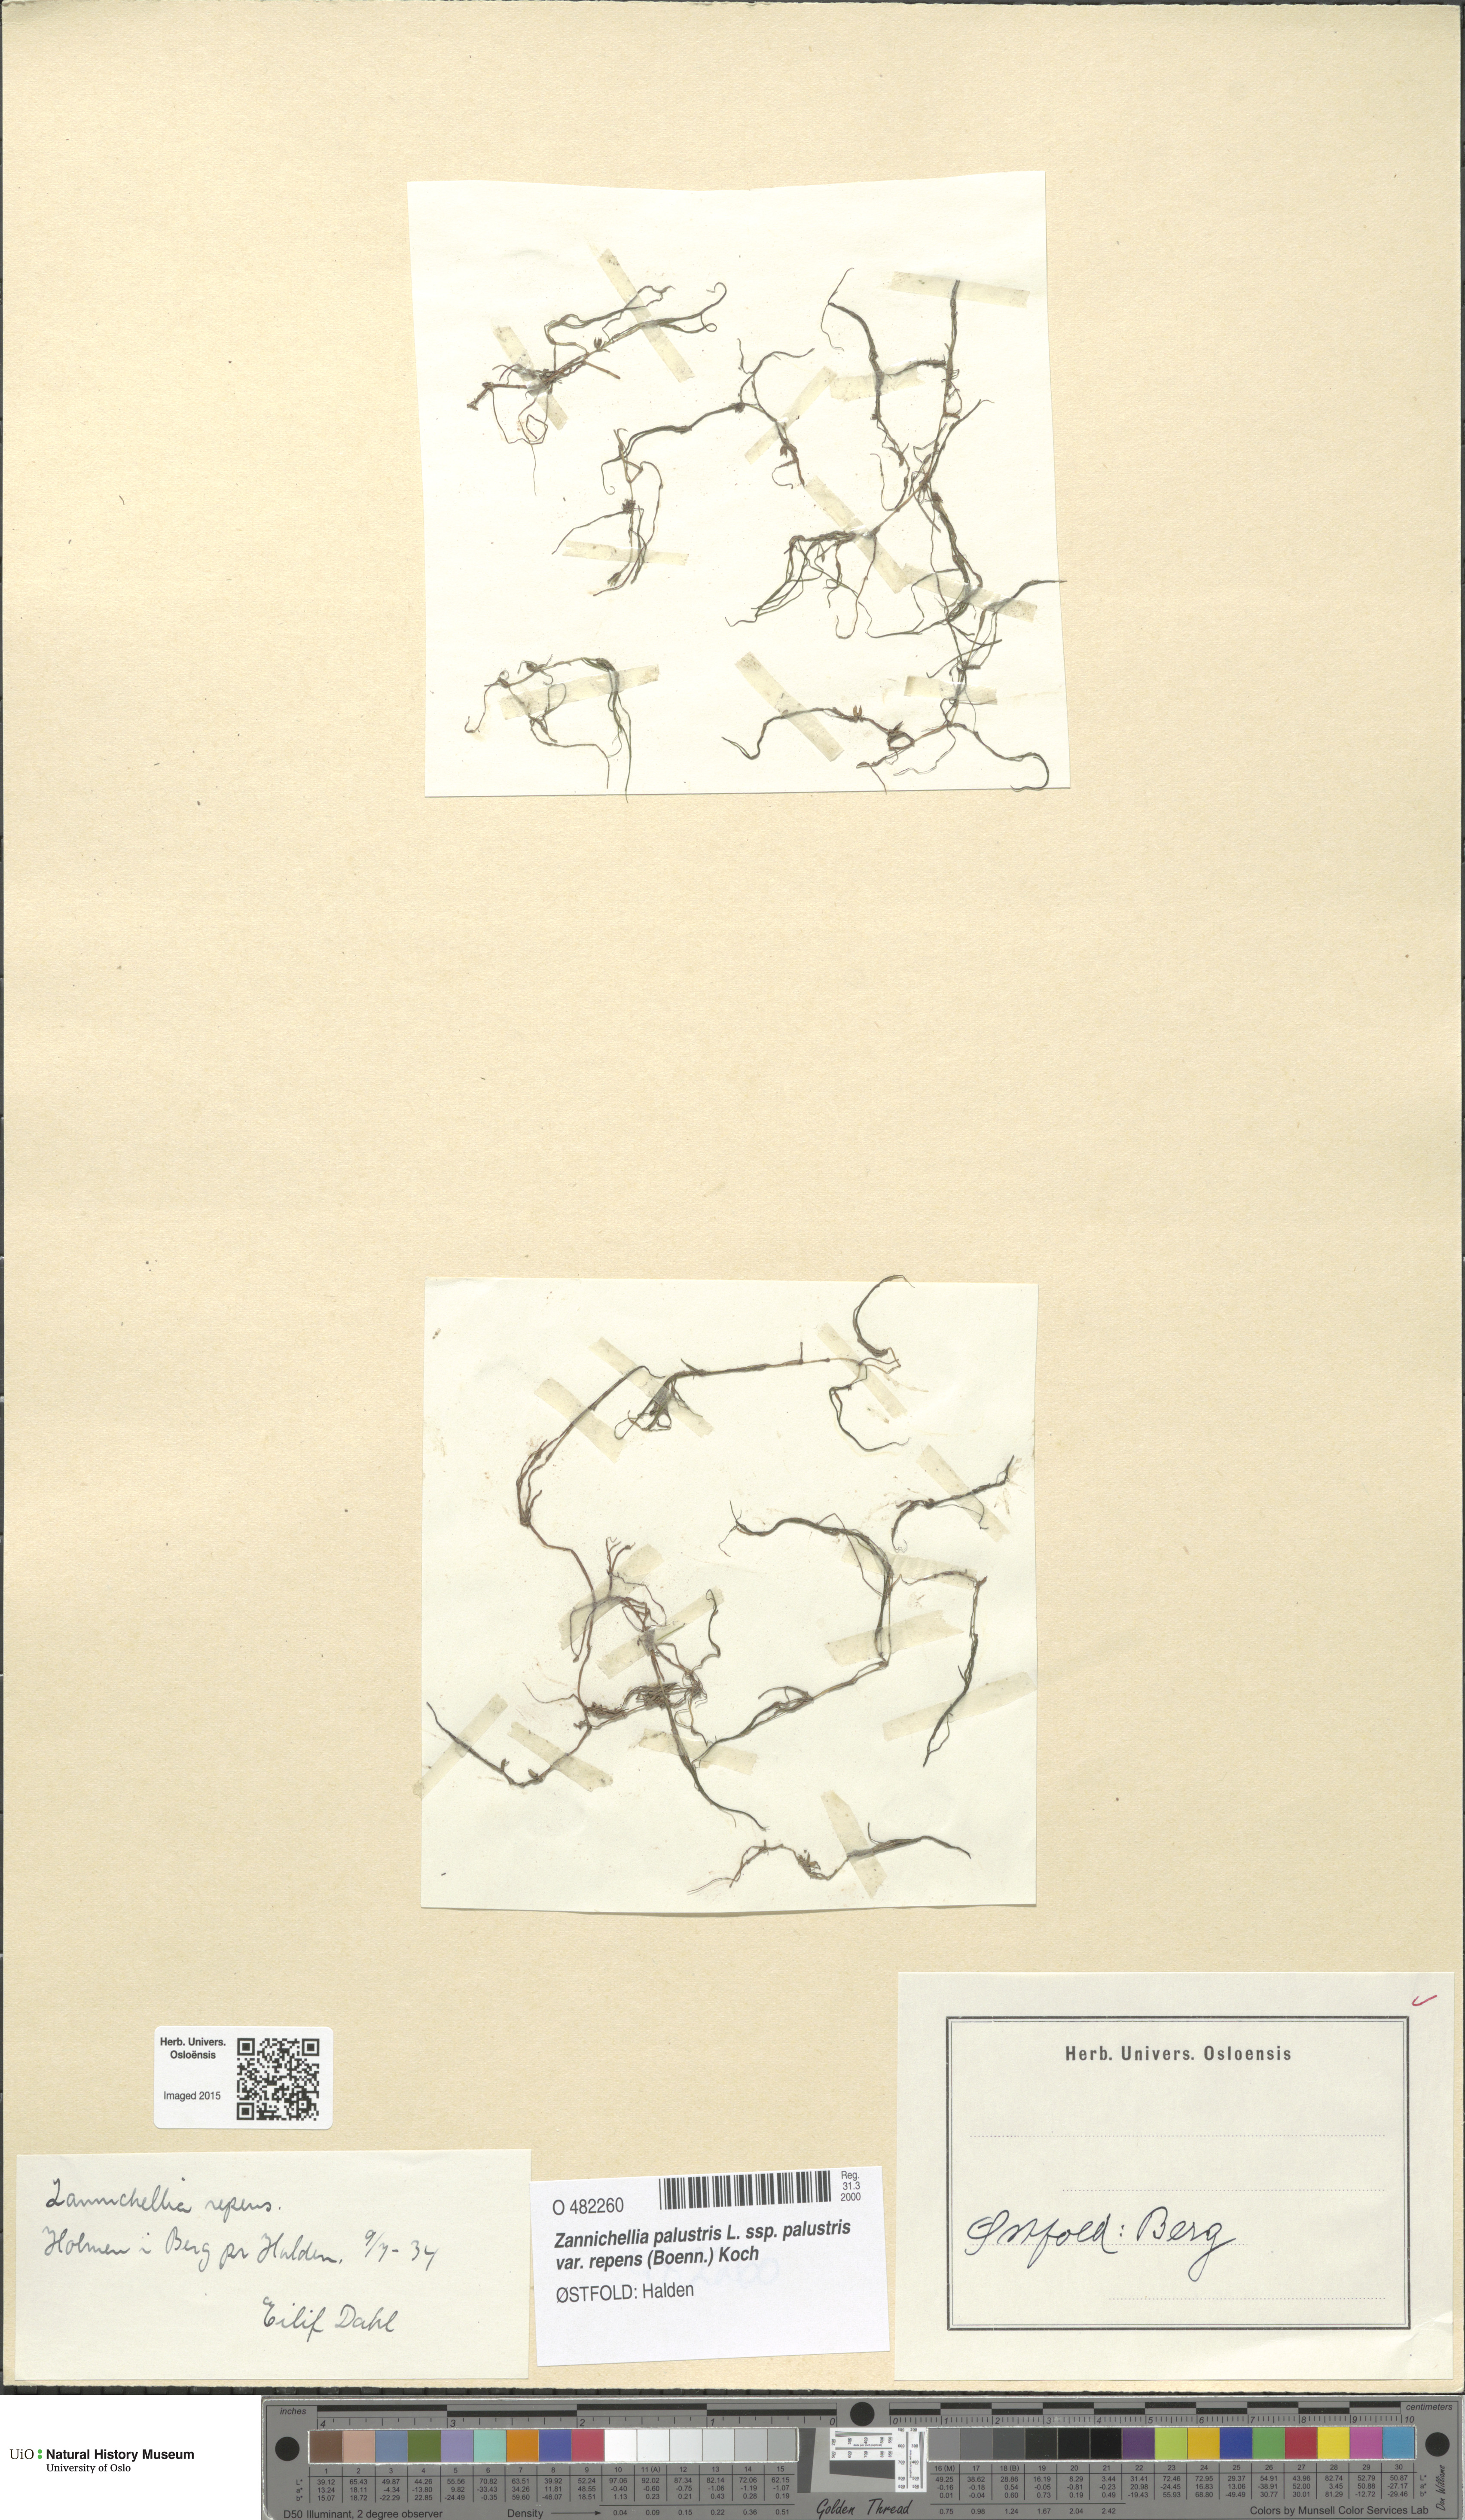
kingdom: Plantae
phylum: Tracheophyta
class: Liliopsida
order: Alismatales
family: Potamogetonaceae
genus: Zannichellia
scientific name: Zannichellia palustris
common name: Horned pondweed
